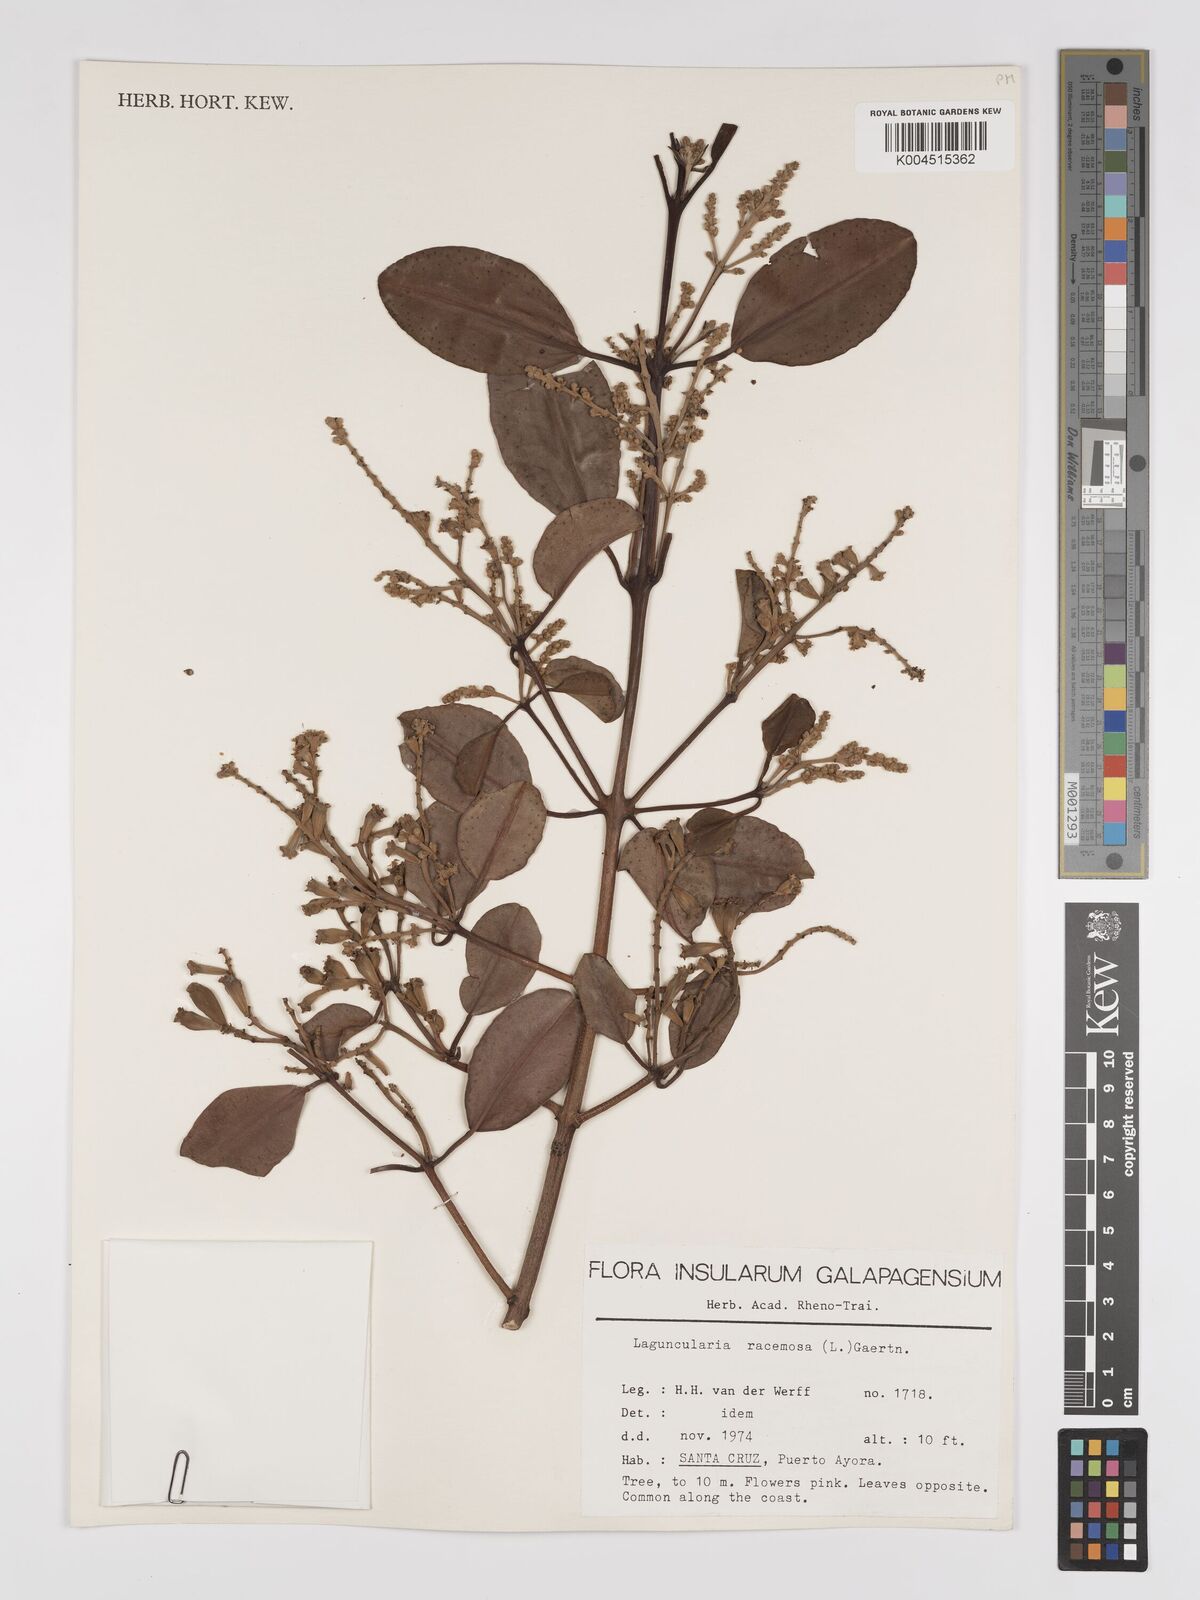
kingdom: Plantae
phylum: Tracheophyta
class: Magnoliopsida
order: Myrtales
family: Combretaceae
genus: Laguncularia
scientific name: Laguncularia racemosa
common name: White mangrove
